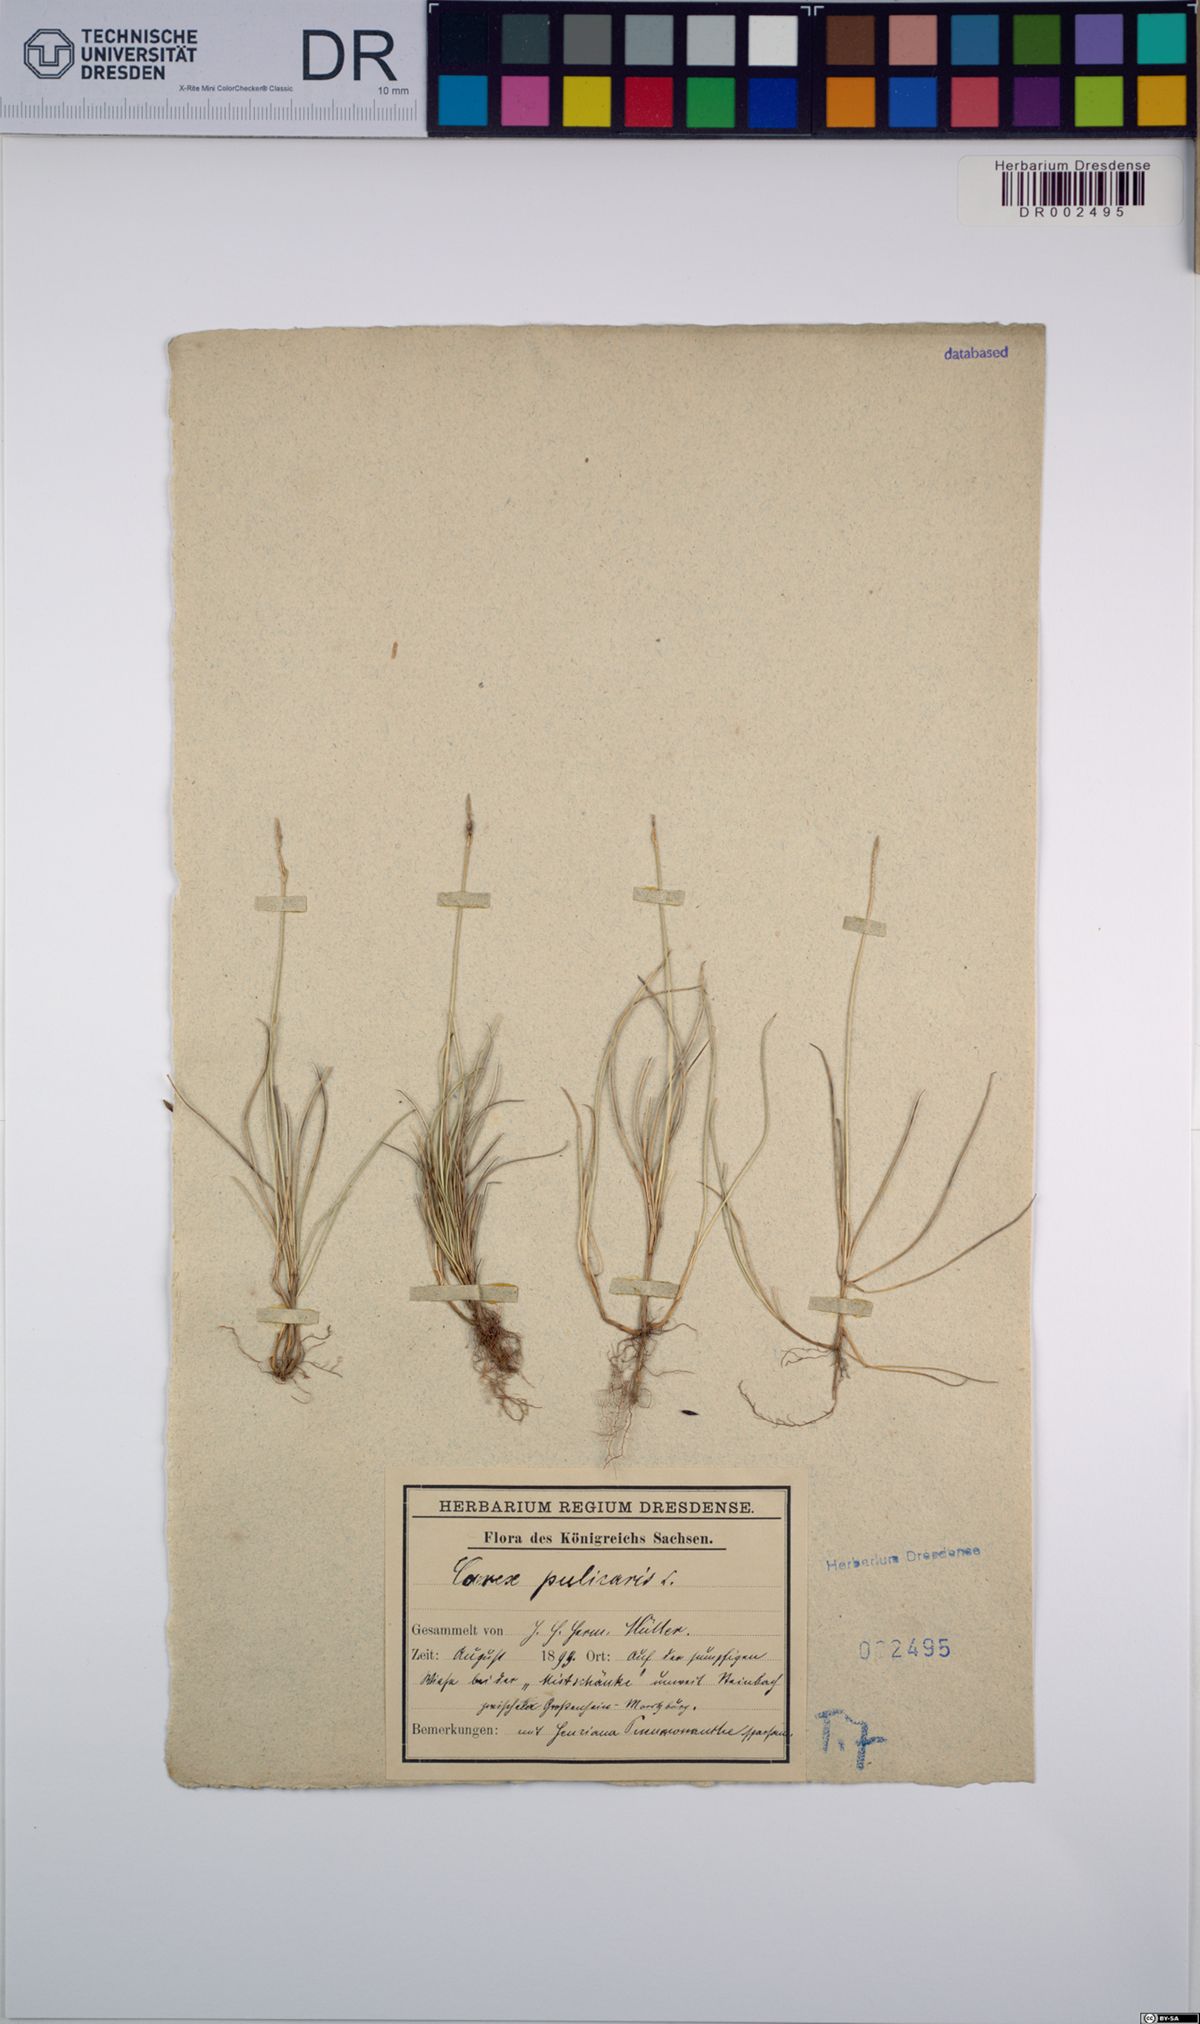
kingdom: Plantae
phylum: Tracheophyta
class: Liliopsida
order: Poales
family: Cyperaceae
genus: Carex
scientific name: Carex pulicaris
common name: Flea sedge
